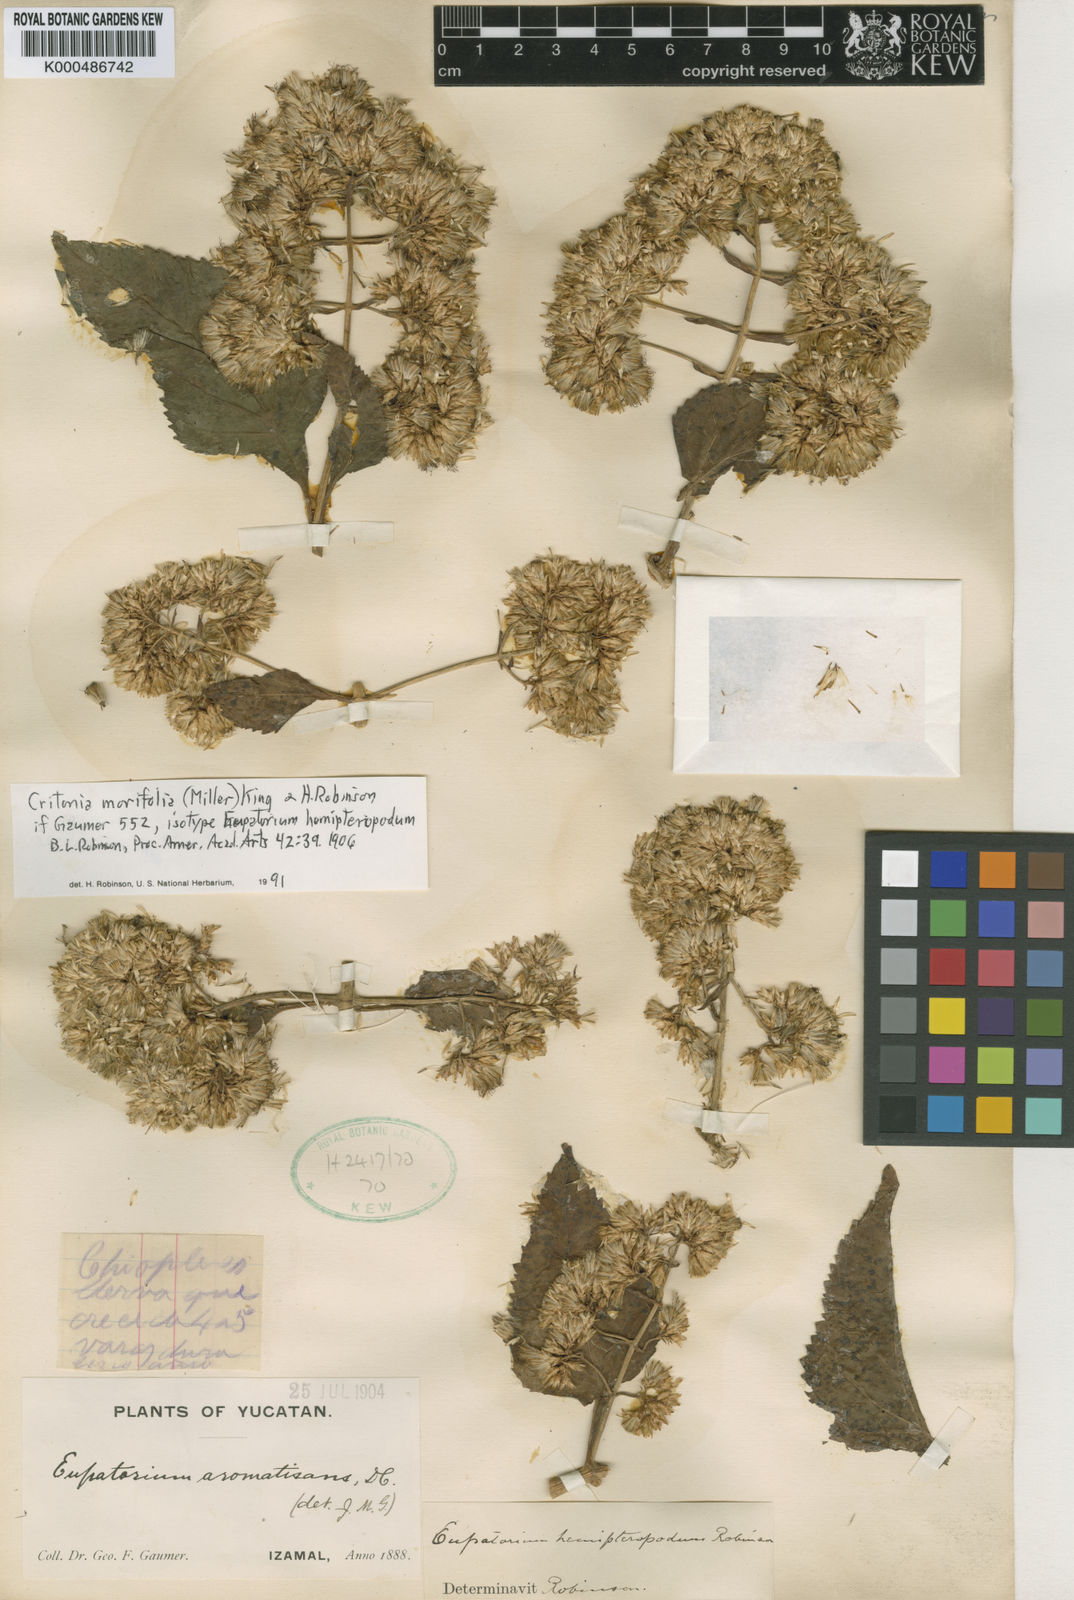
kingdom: Plantae
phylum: Tracheophyta
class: Magnoliopsida
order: Asterales
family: Asteraceae
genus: Critonia
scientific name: Critonia morifolia
